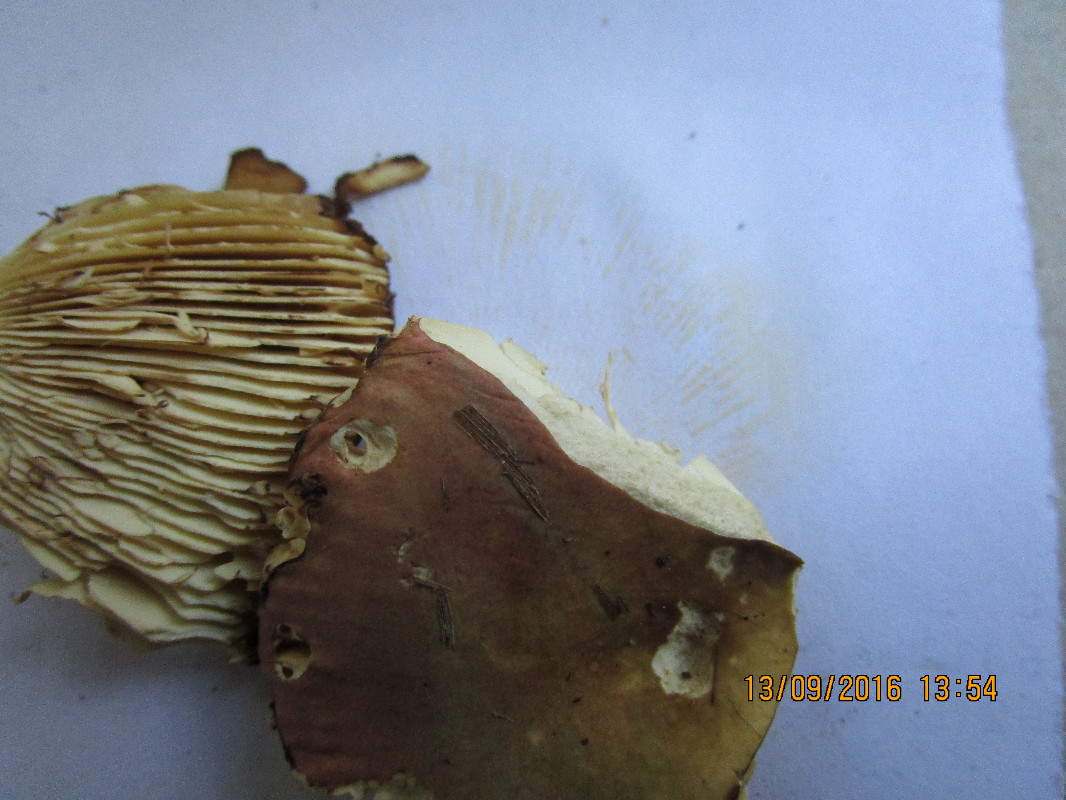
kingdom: Fungi
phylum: Basidiomycota
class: Agaricomycetes
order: Russulales
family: Russulaceae
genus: Russula
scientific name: Russula seperina
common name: rødmende skørhat
